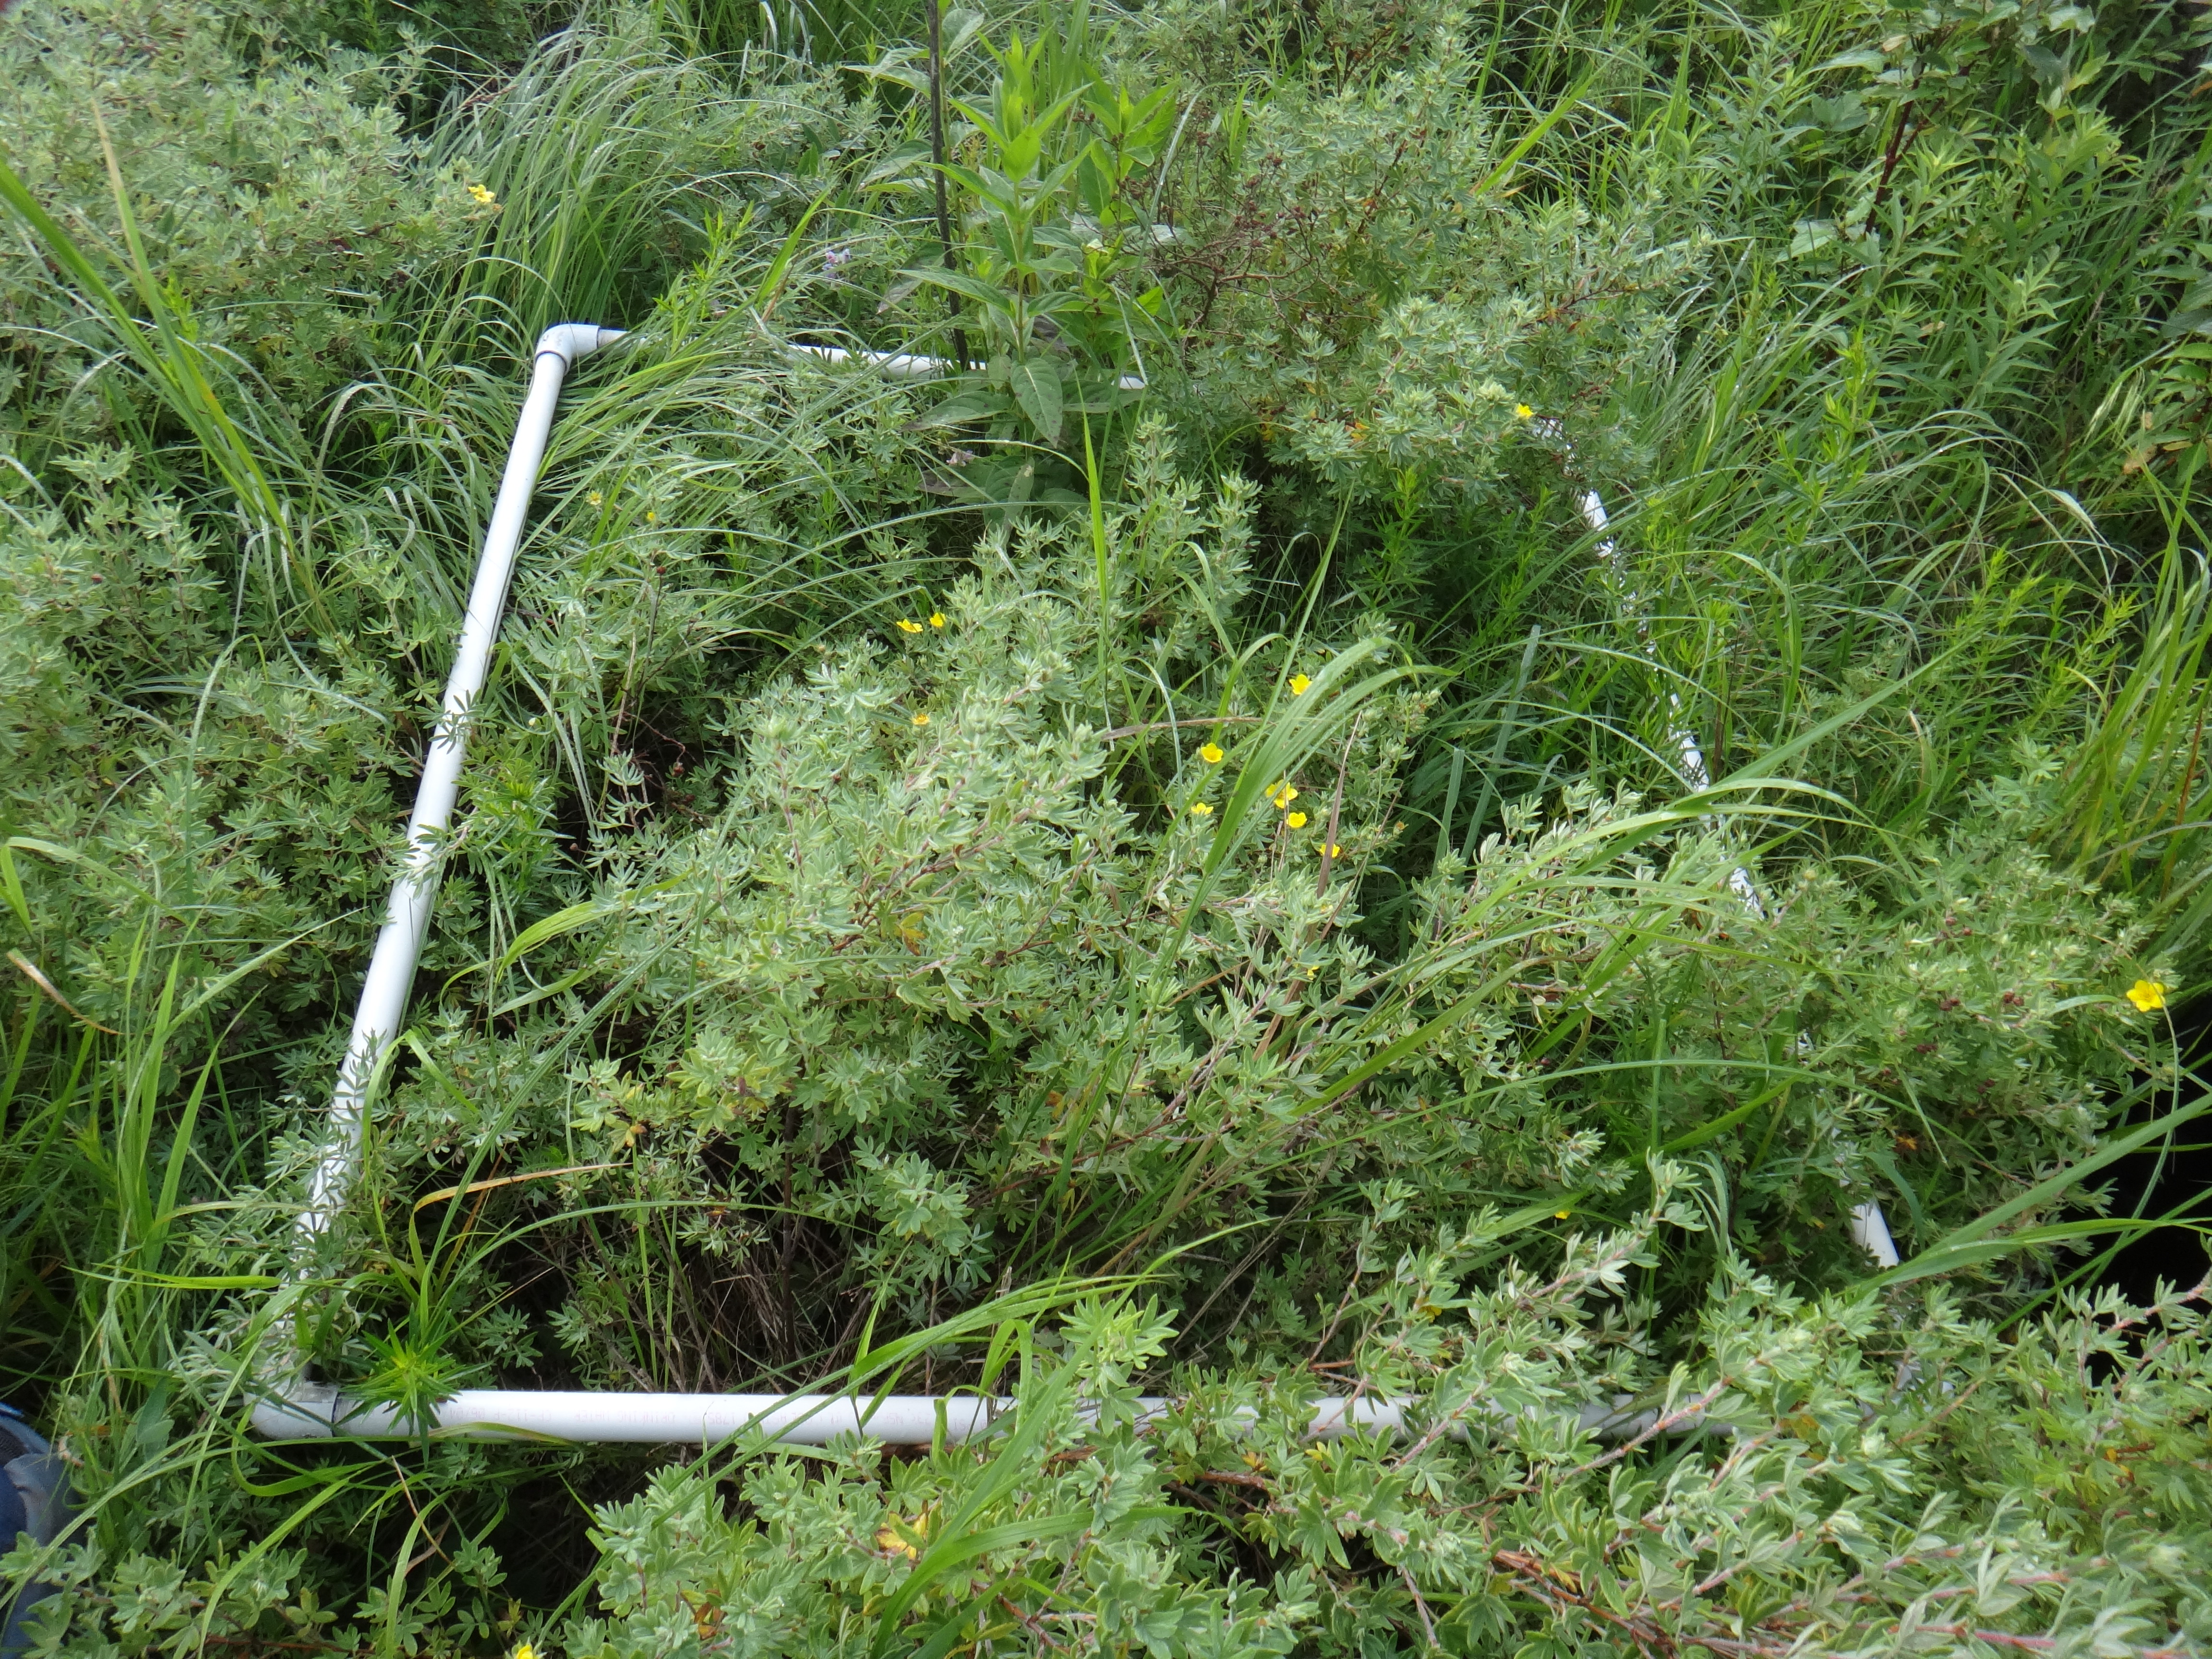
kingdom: Plantae
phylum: Tracheophyta
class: Liliopsida
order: Poales
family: Poaceae
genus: Muhlenbergia
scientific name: Muhlenbergia glomerata
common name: Bog muhly
